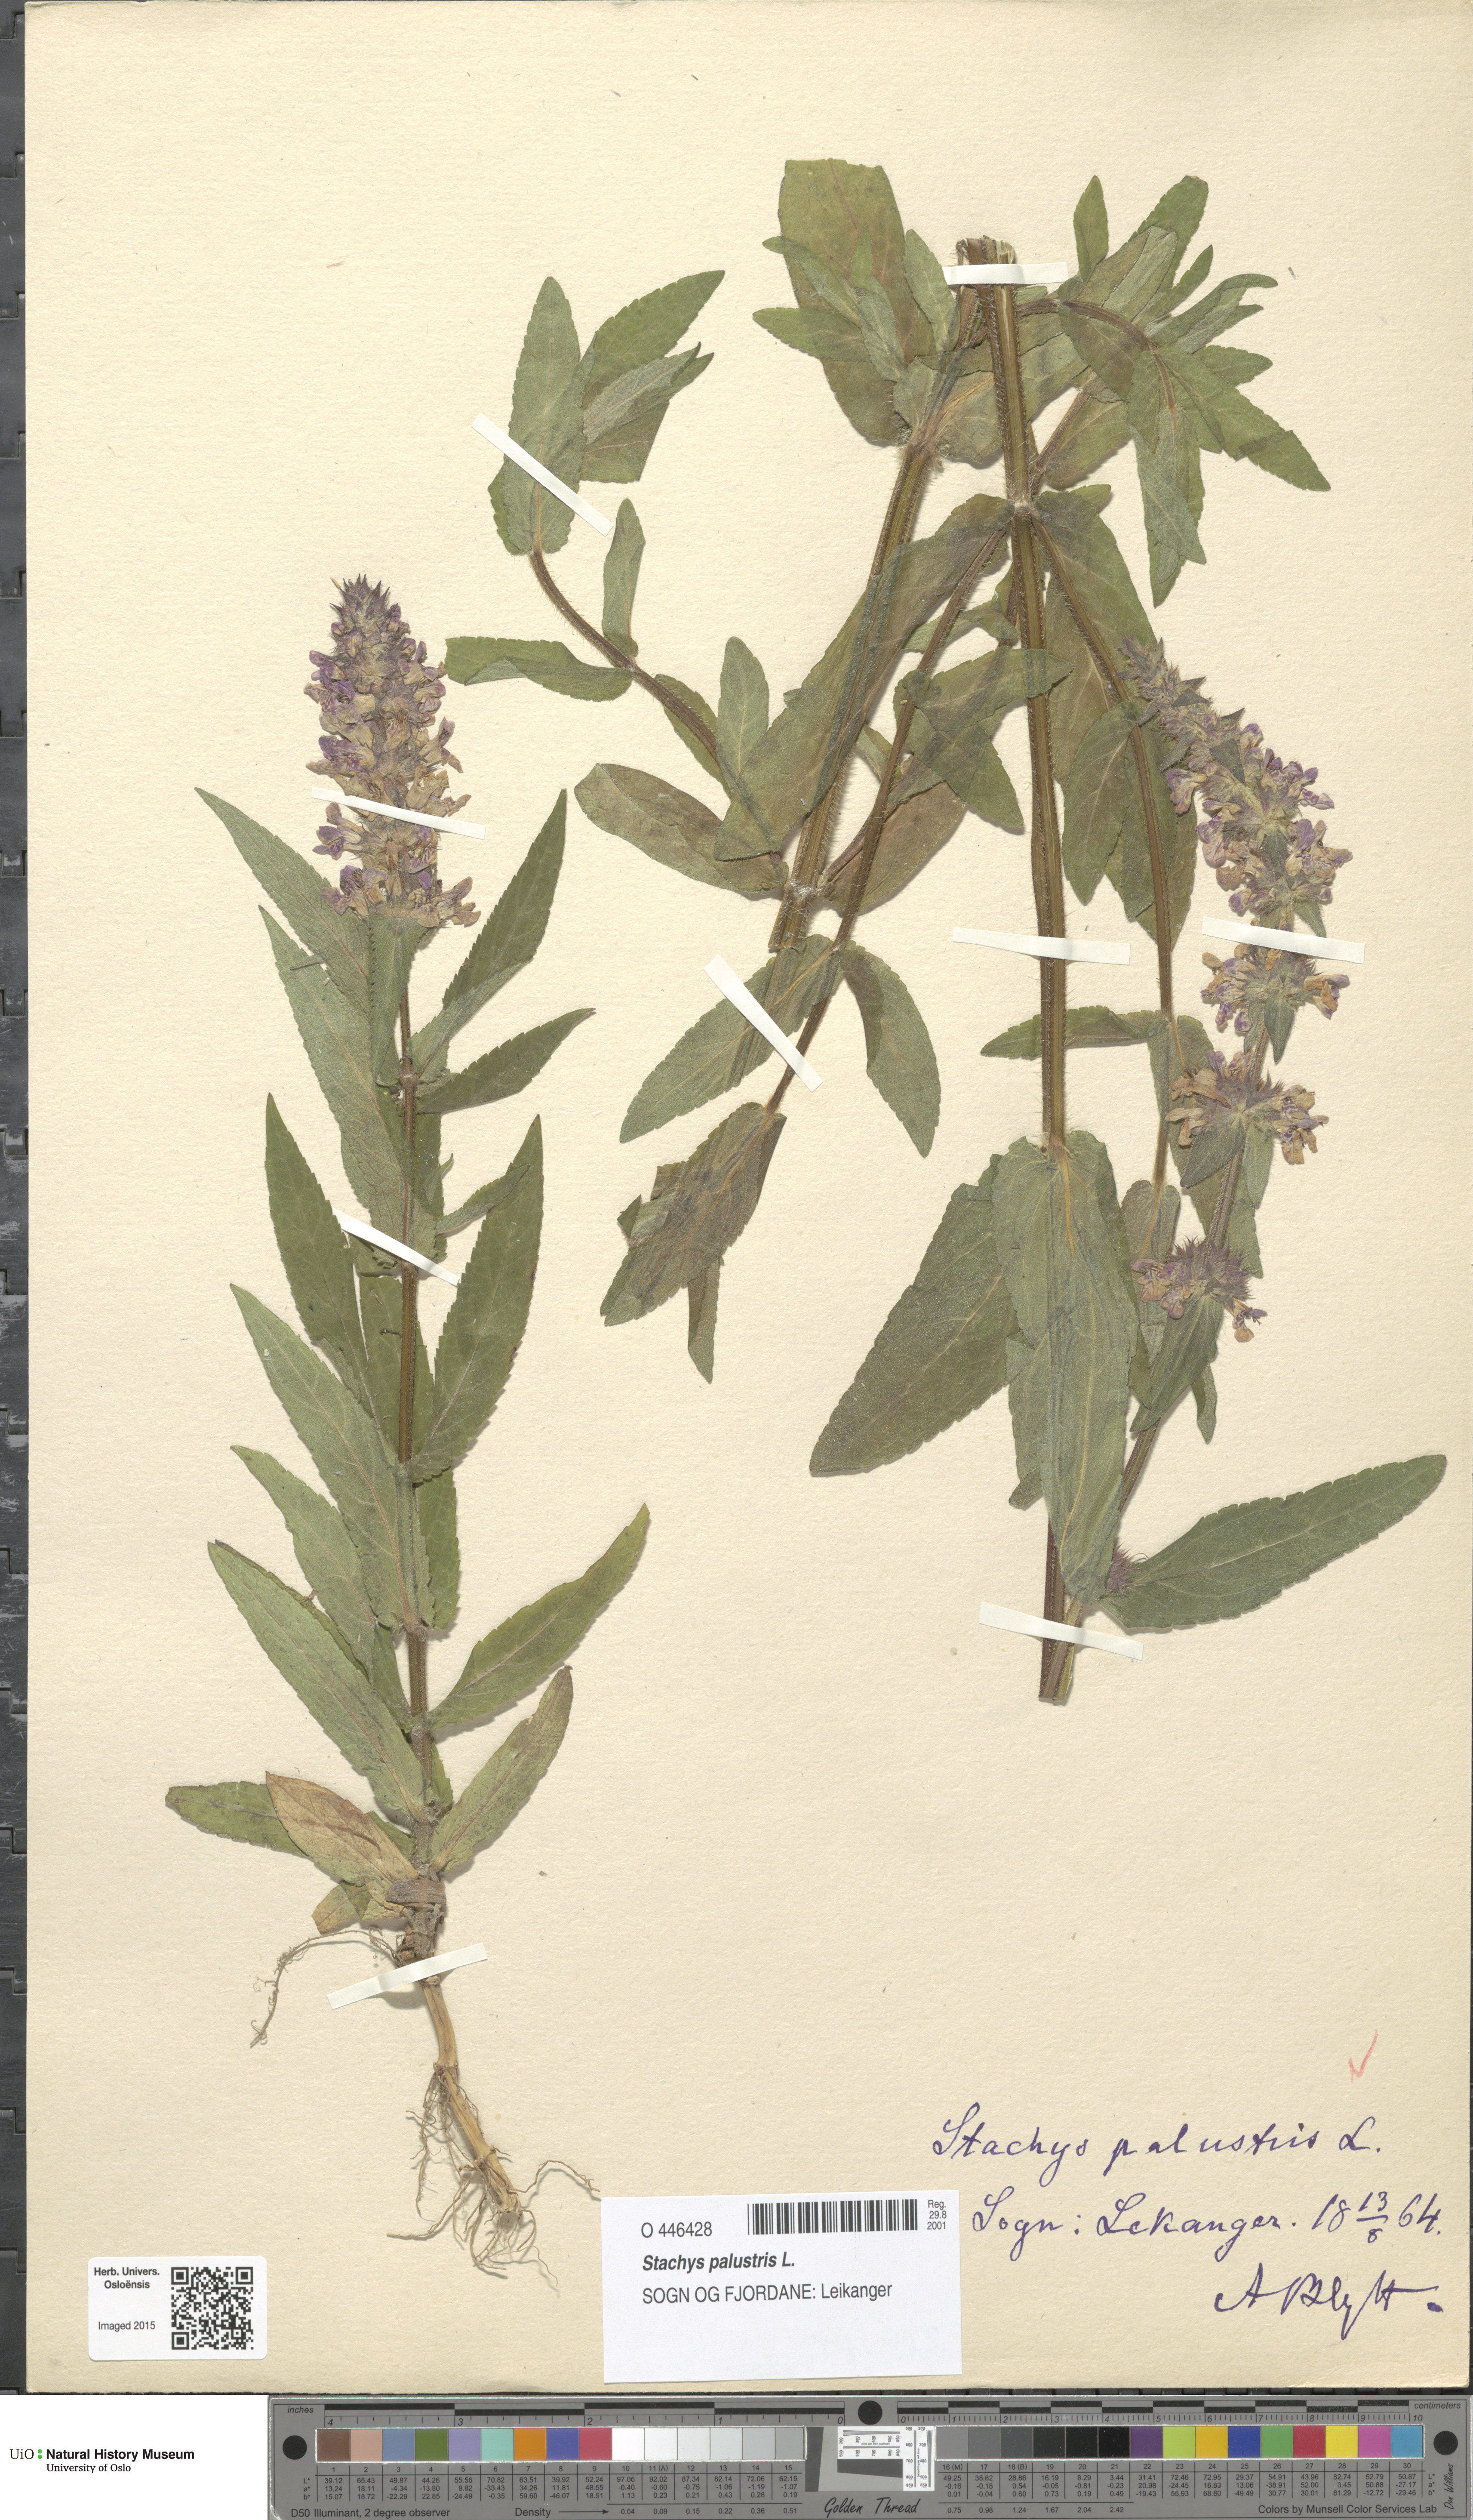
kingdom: Plantae
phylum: Tracheophyta
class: Magnoliopsida
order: Lamiales
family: Lamiaceae
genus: Stachys
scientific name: Stachys palustris
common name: Marsh woundwort
